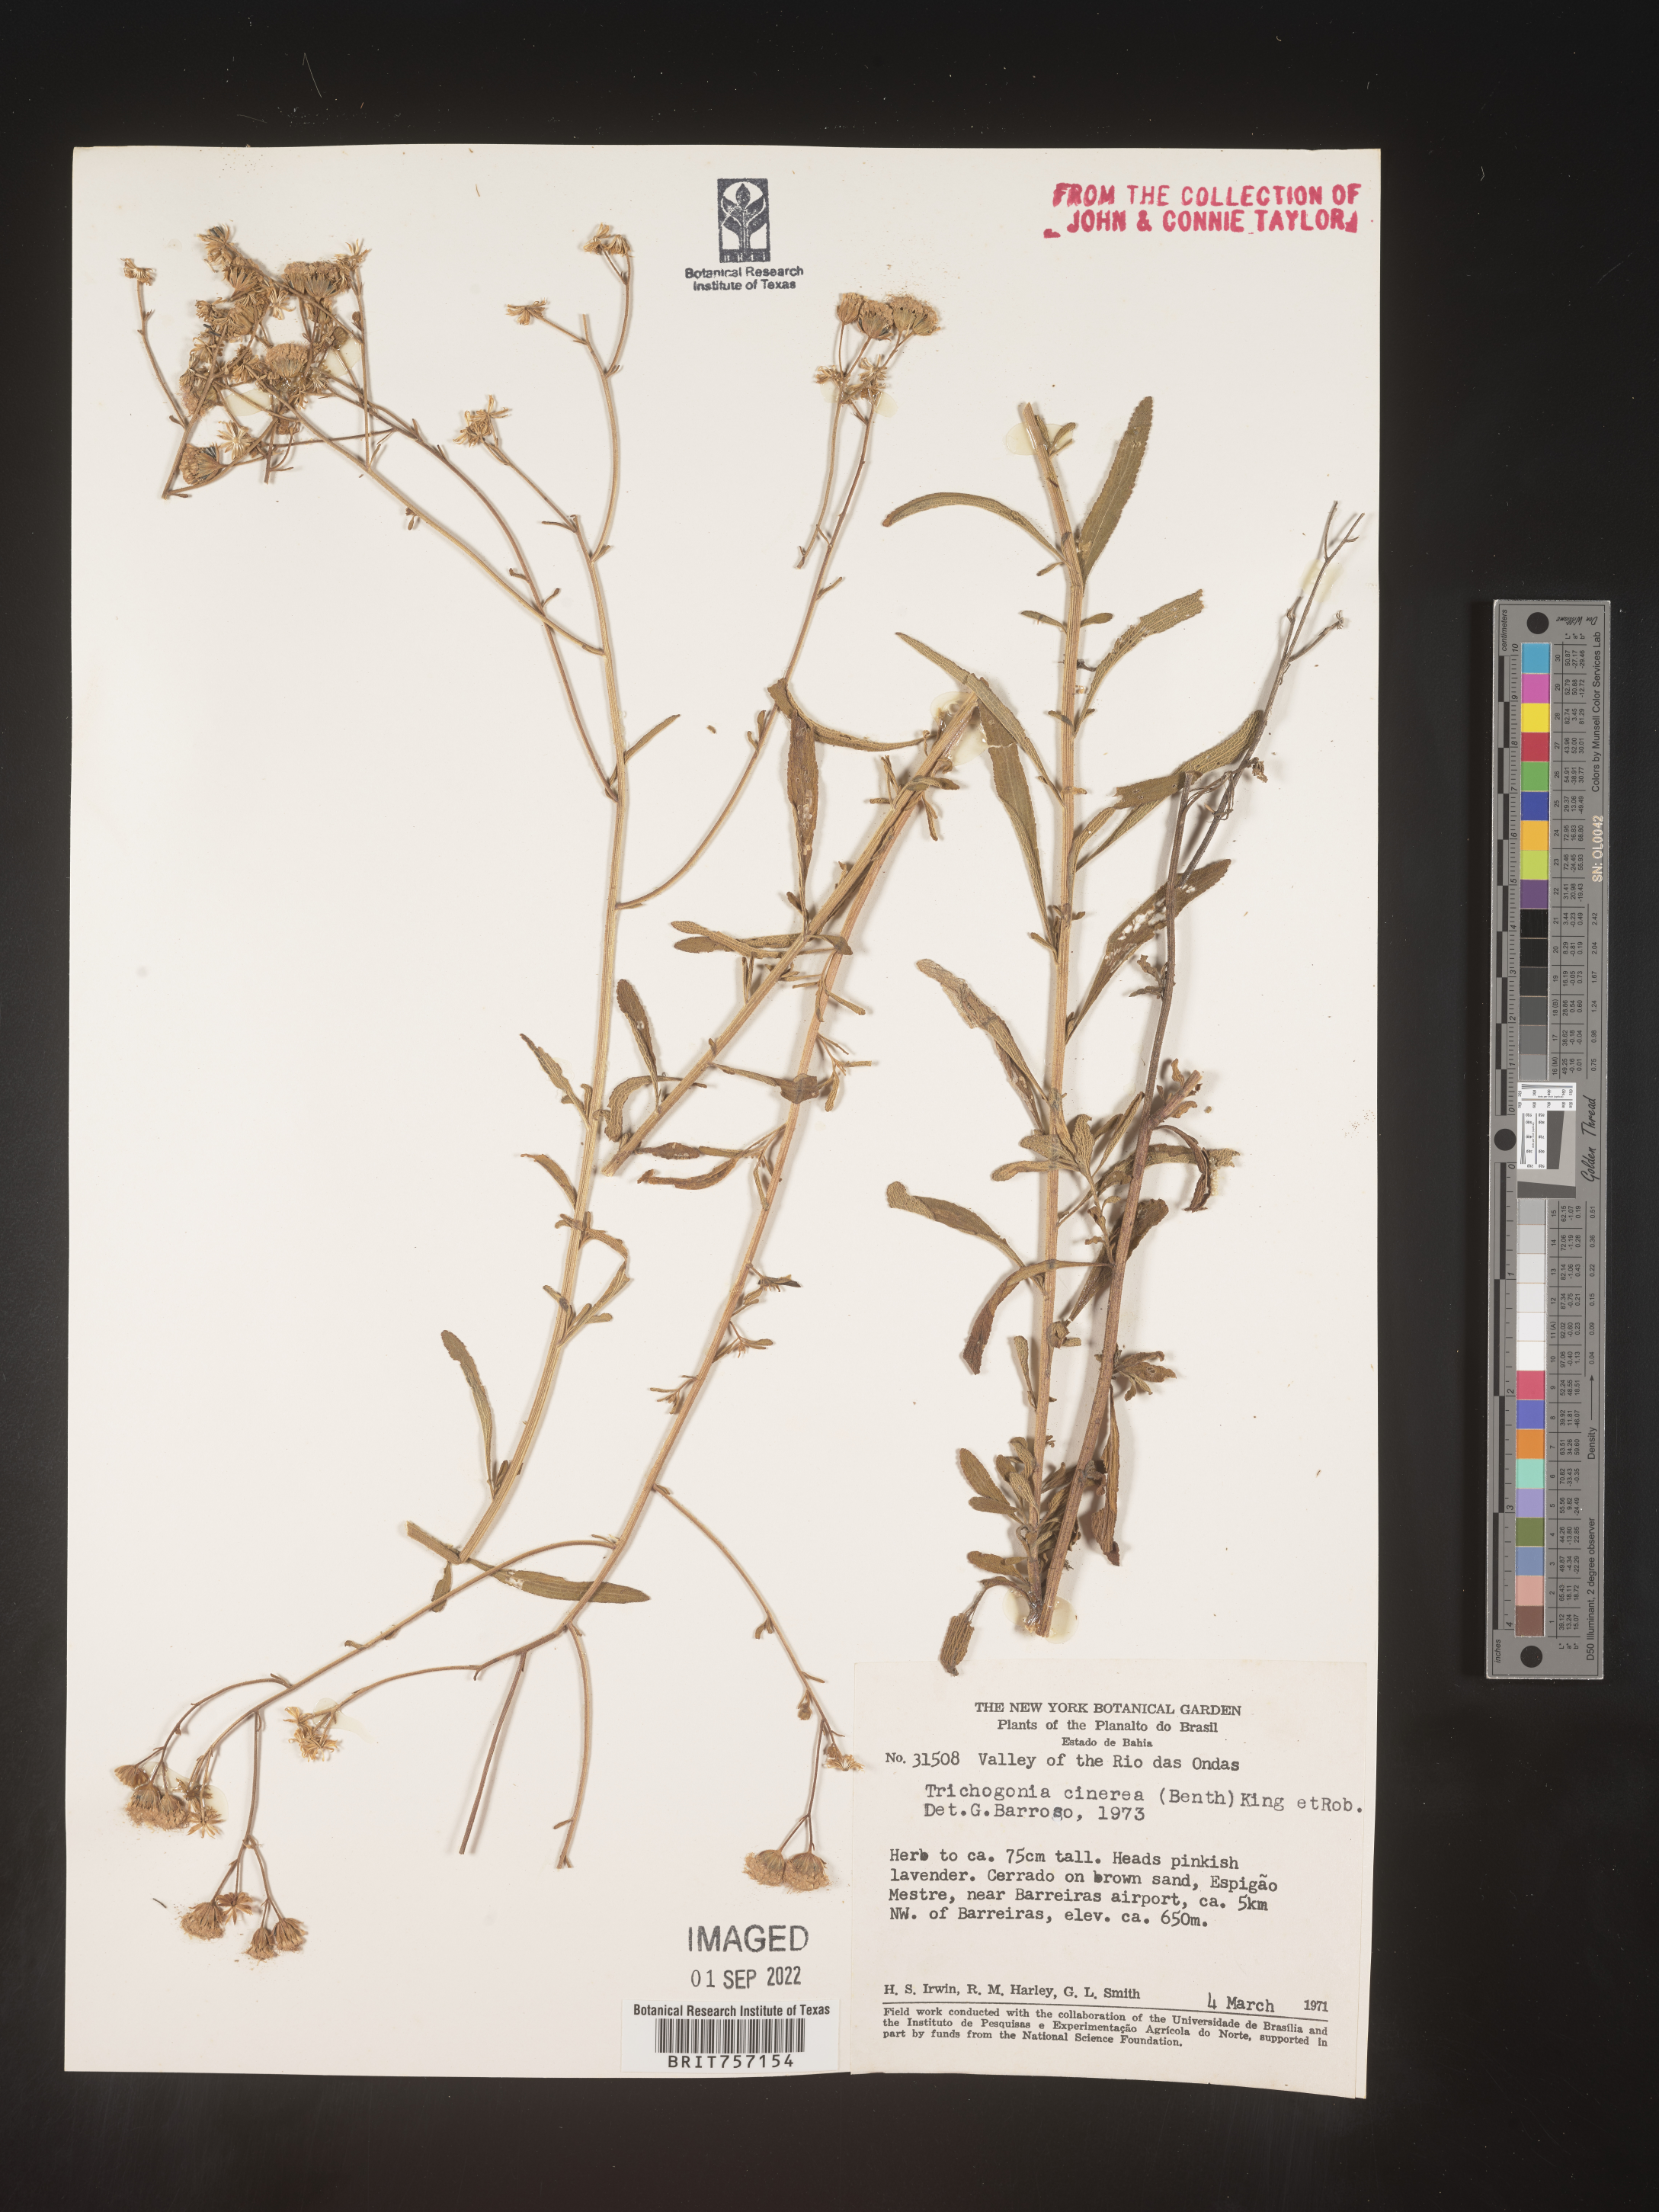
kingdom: Plantae
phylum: Tracheophyta
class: Magnoliopsida
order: Asterales
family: Asteraceae
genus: Trichogonia
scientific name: Trichogonia
